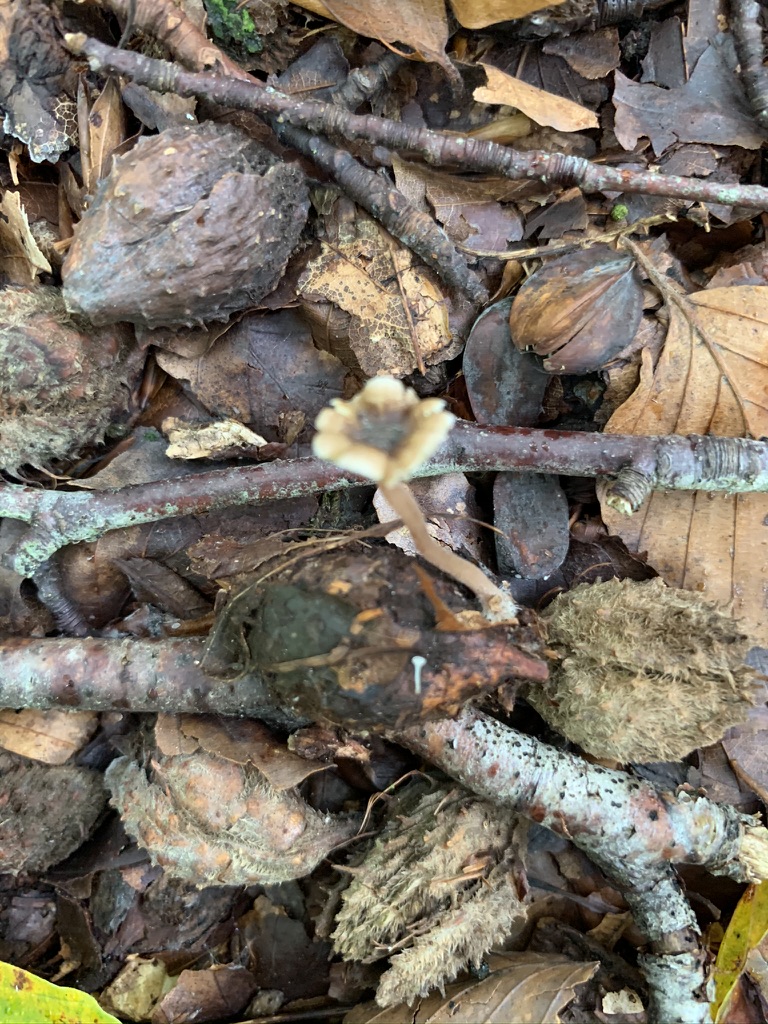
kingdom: Fungi
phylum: Basidiomycota
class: Agaricomycetes
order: Agaricales
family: Inocybaceae
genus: Inocybe
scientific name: Inocybe petiginosa
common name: liden trævlhat
